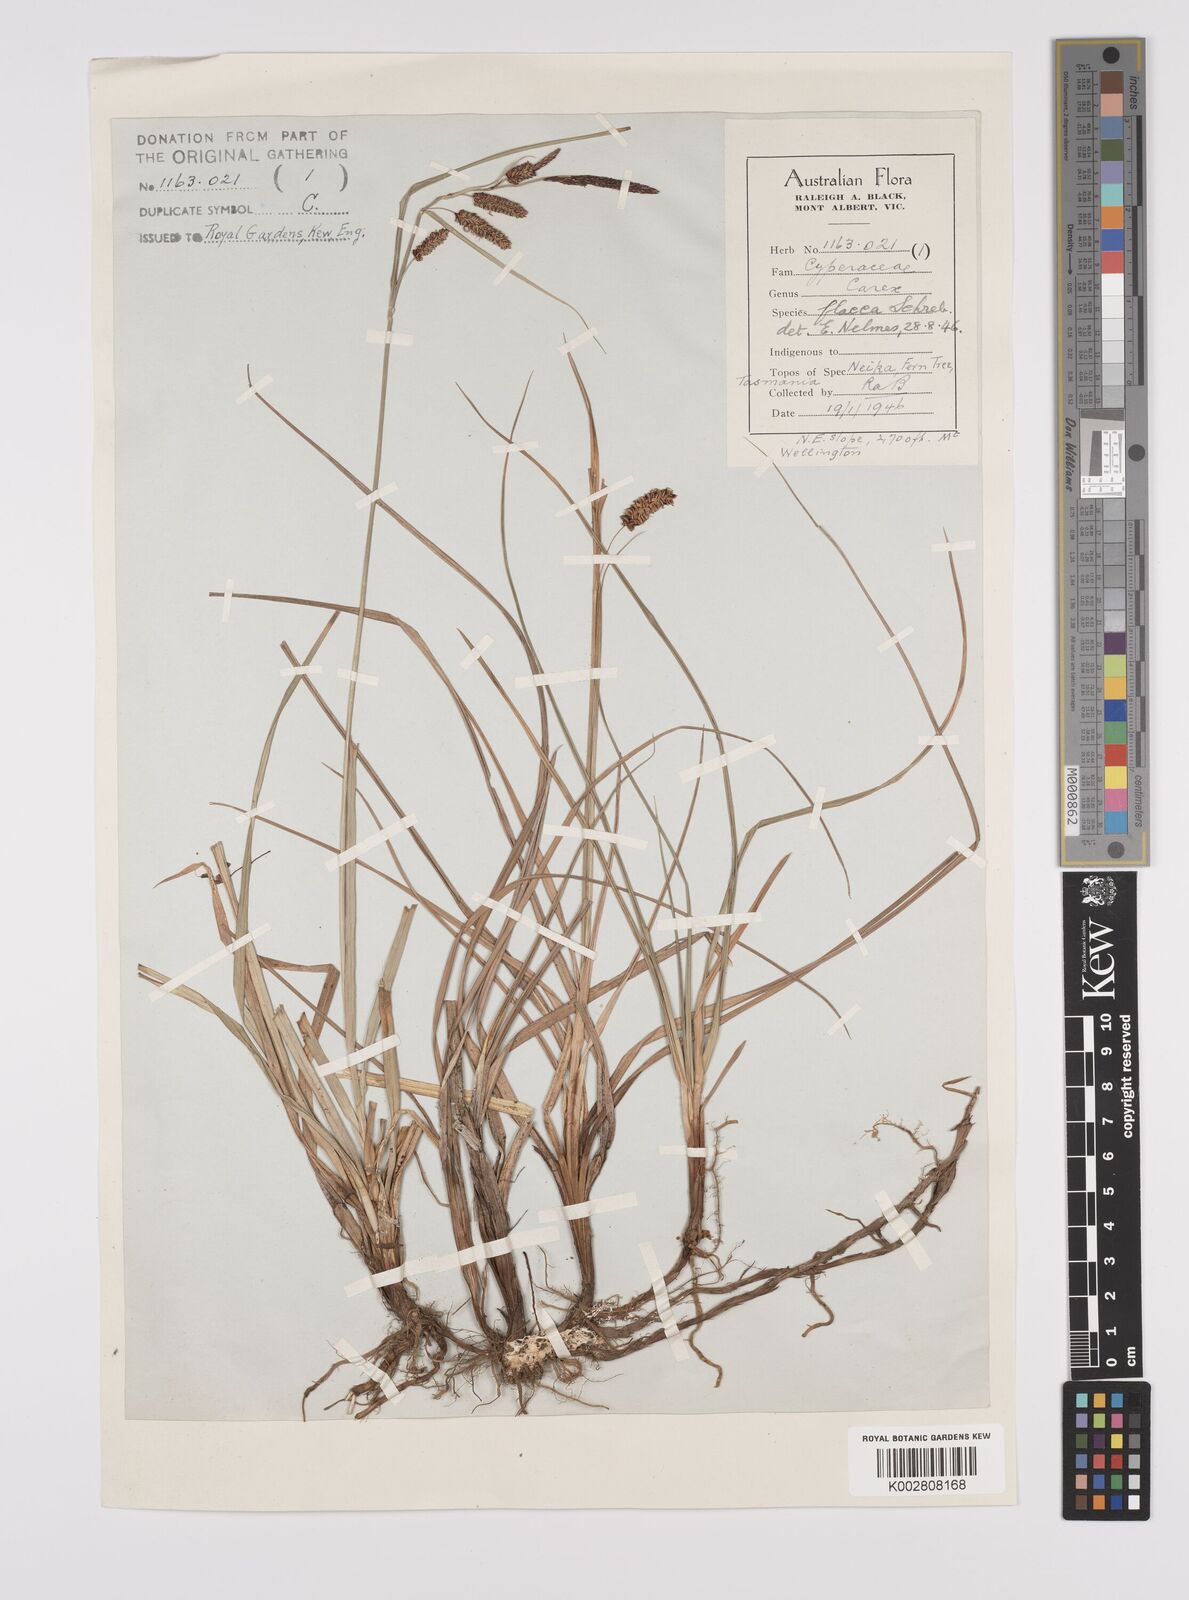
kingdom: Plantae
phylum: Tracheophyta
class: Liliopsida
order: Poales
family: Cyperaceae
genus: Carex
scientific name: Carex flacca
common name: Glaucous sedge
